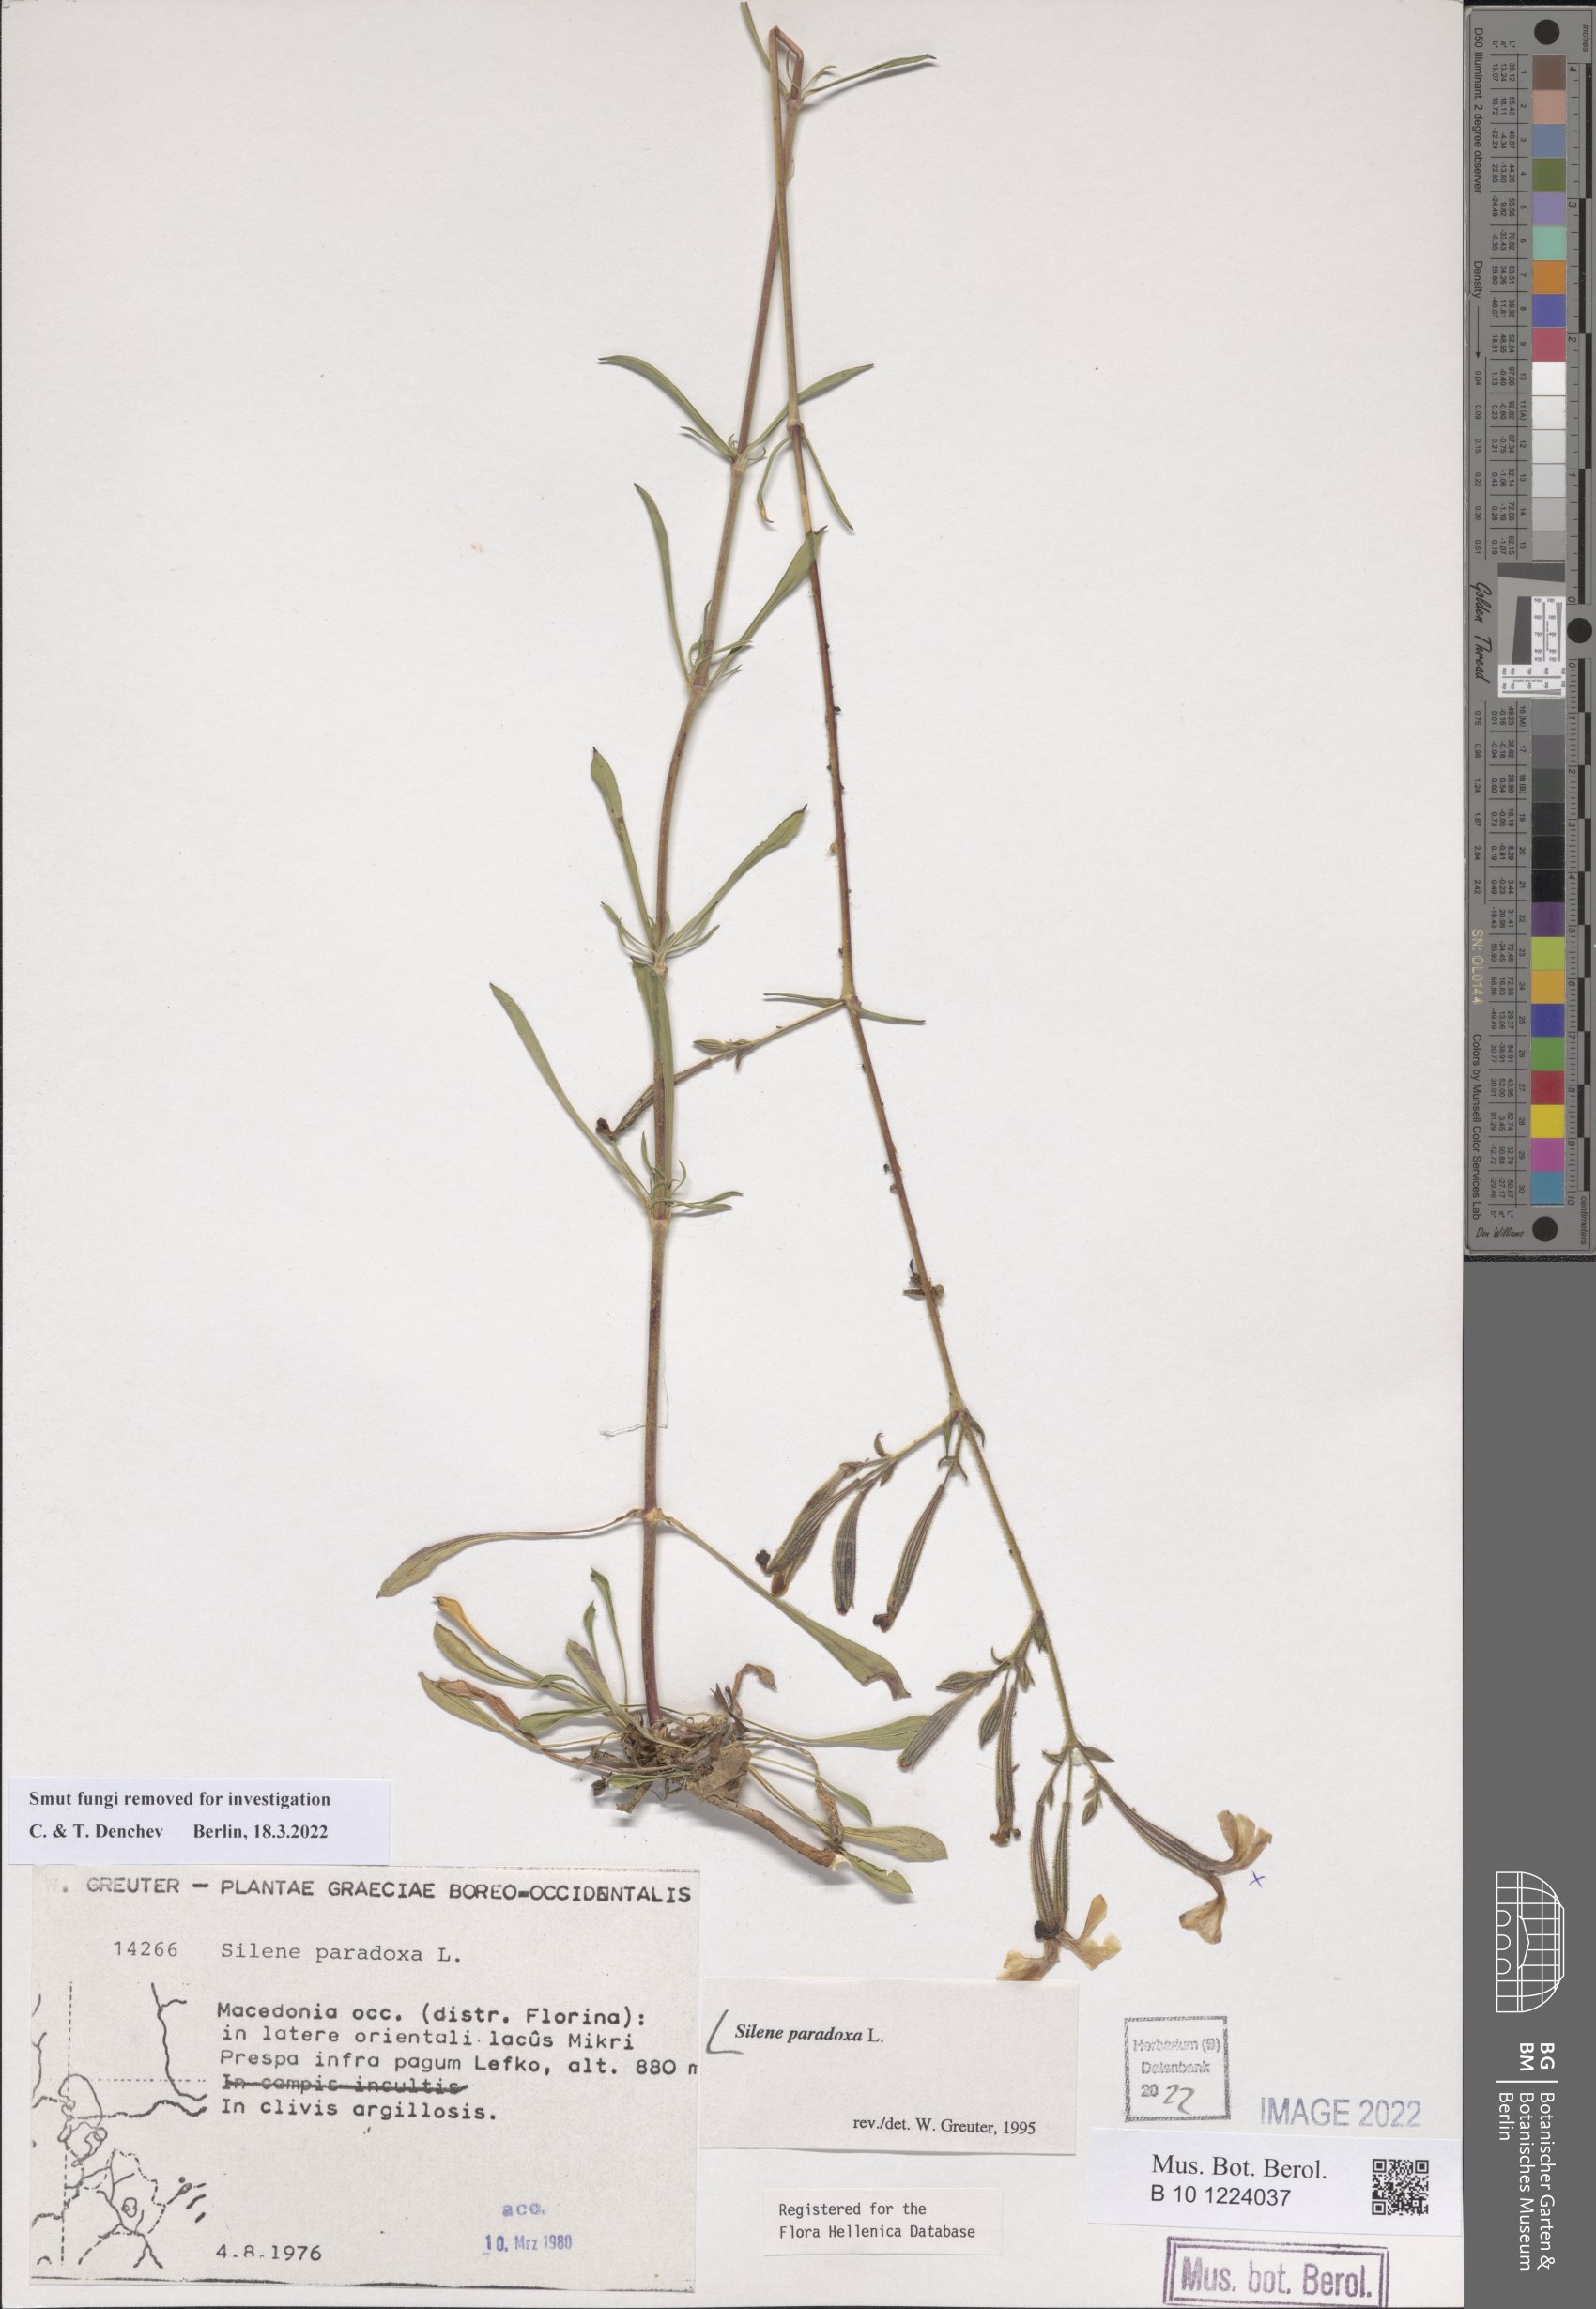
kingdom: Plantae
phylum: Tracheophyta
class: Magnoliopsida
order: Caryophyllales
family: Caryophyllaceae
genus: Silene
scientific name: Silene paradoxa
